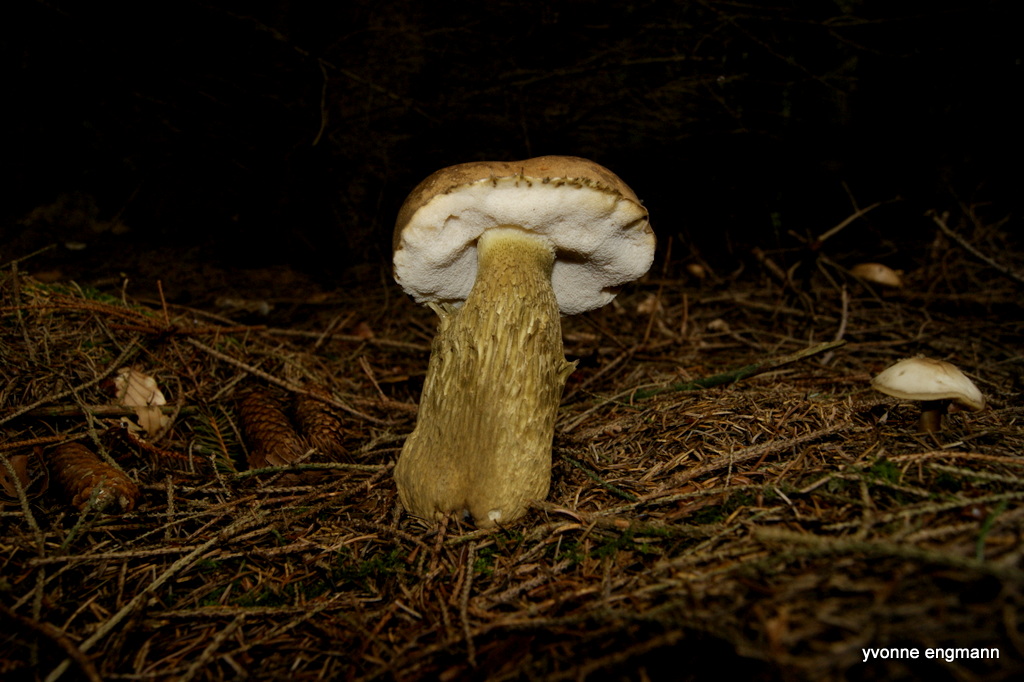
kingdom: Fungi
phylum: Basidiomycota
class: Agaricomycetes
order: Boletales
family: Boletaceae
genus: Tylopilus
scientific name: Tylopilus felleus
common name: galderørhat
